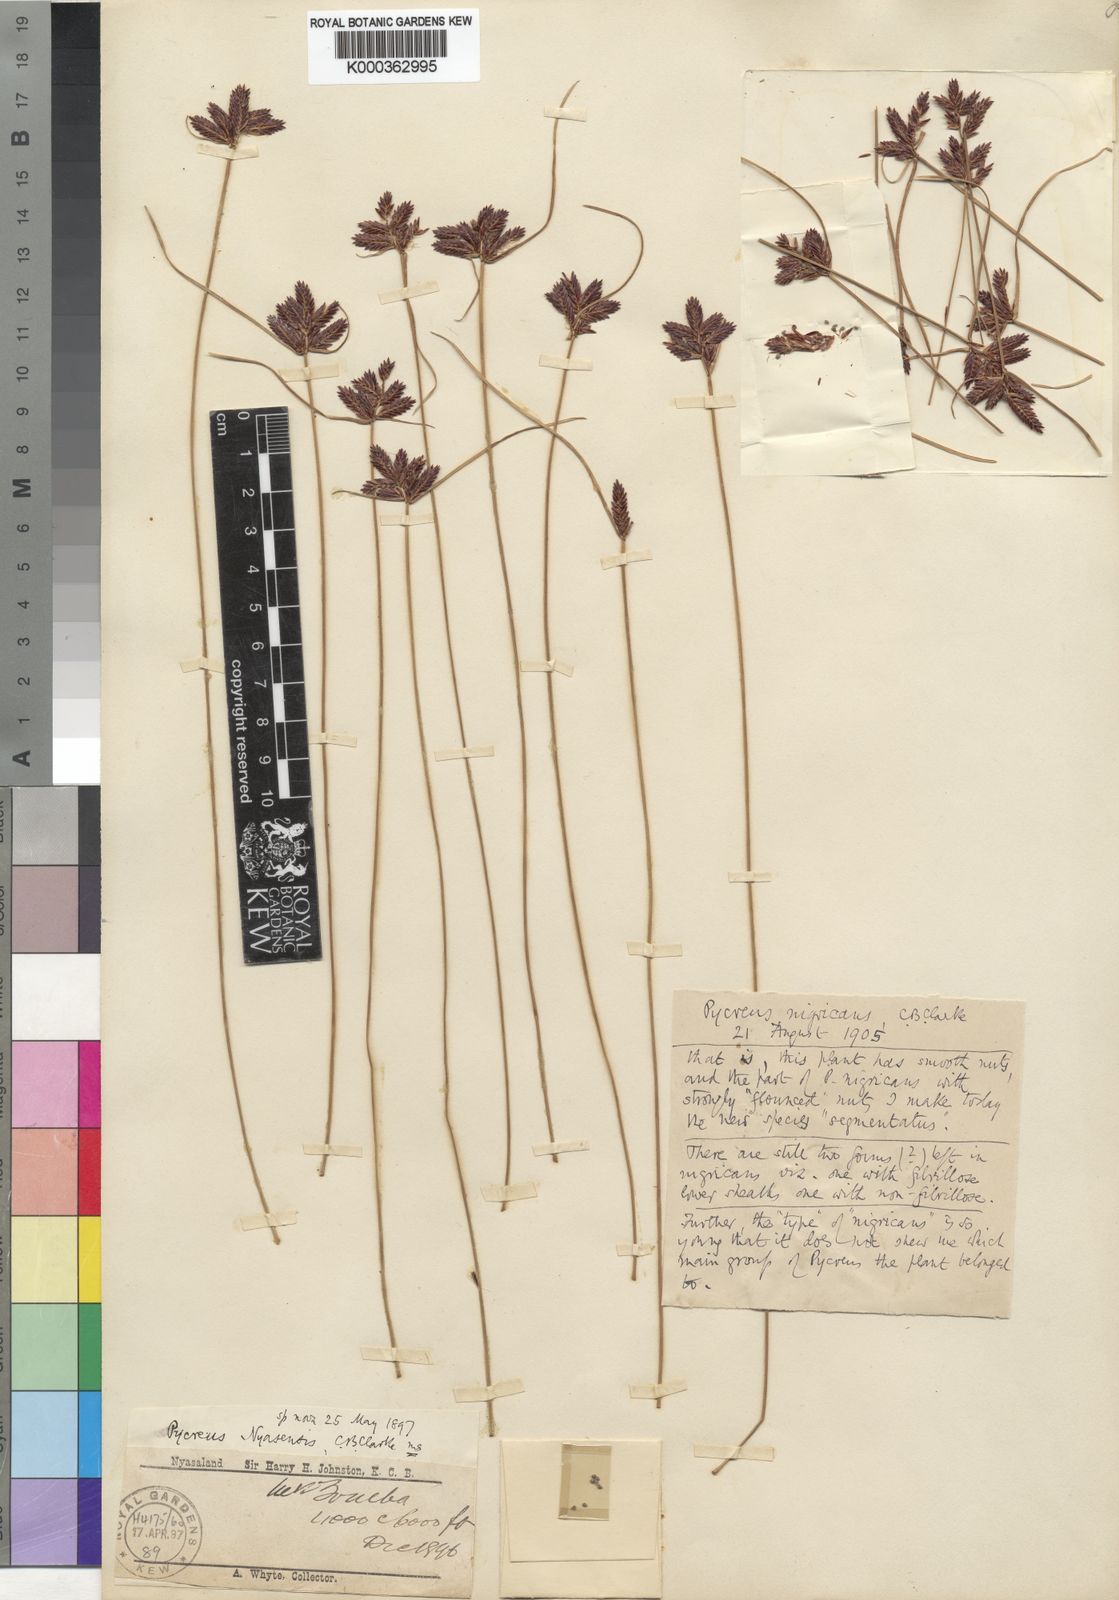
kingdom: Plantae
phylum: Tracheophyta
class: Liliopsida
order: Poales
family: Cyperaceae
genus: Cyperus
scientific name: Cyperus nigricans
